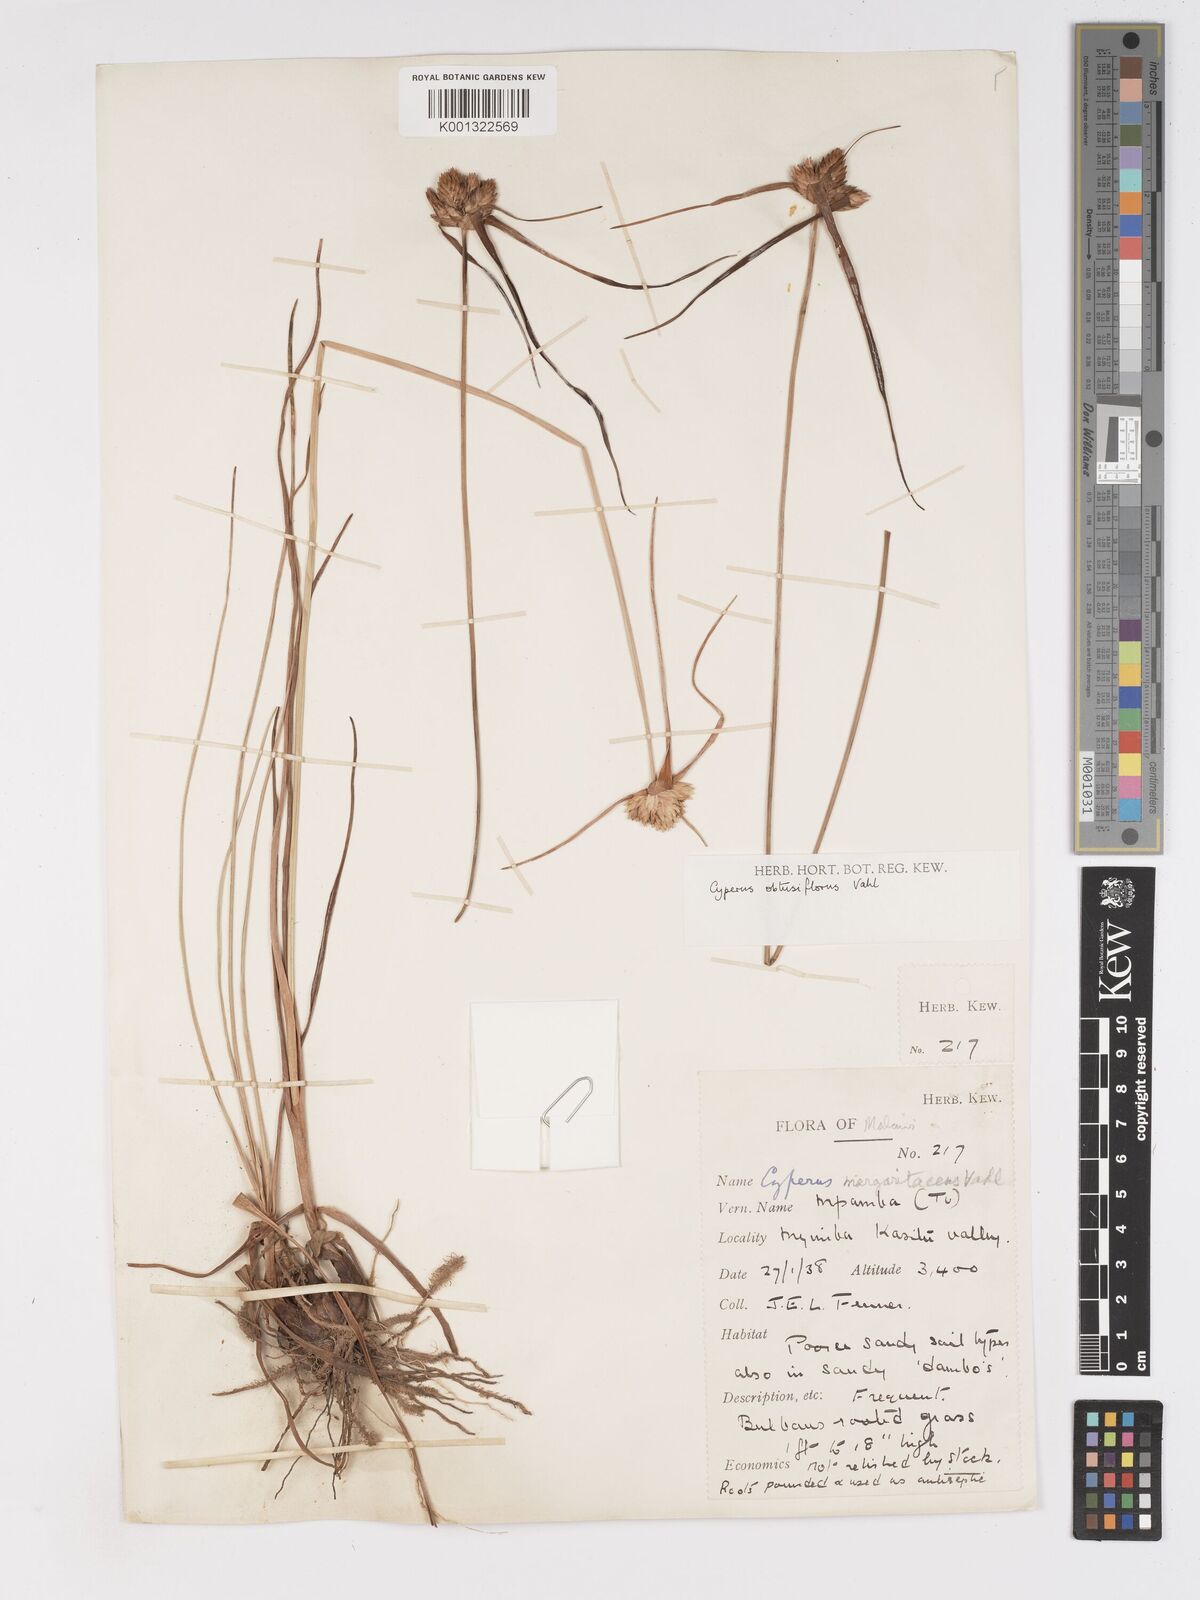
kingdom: Plantae
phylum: Tracheophyta
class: Liliopsida
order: Poales
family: Cyperaceae
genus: Cyperus
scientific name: Cyperus niveus
